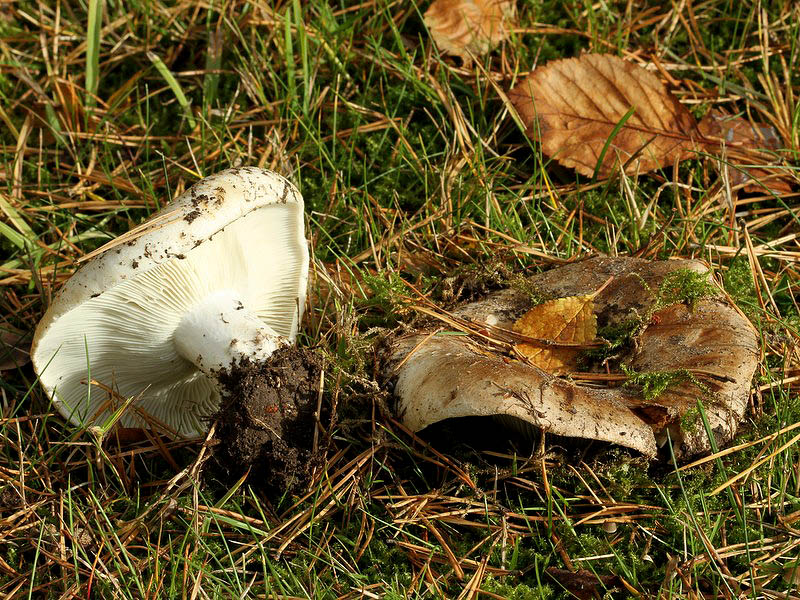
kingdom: Fungi
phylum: Basidiomycota
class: Agaricomycetes
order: Russulales
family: Russulaceae
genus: Russula
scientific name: Russula adusta
